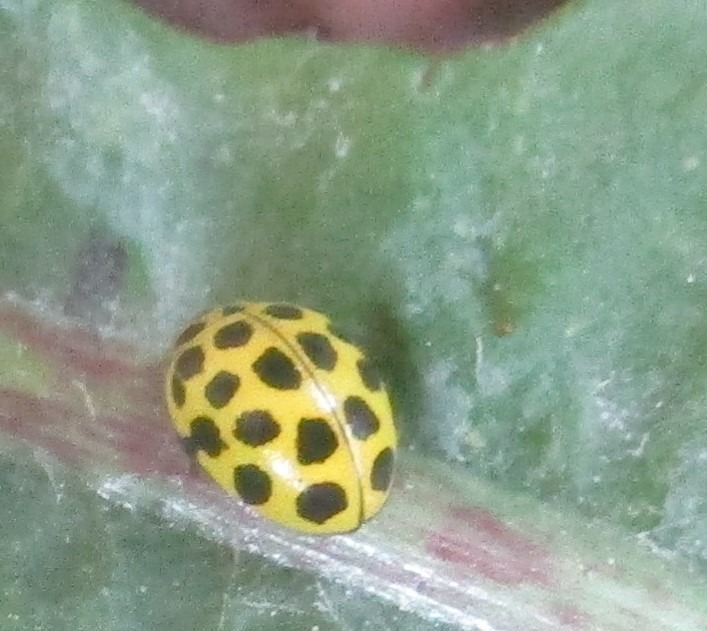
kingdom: Animalia
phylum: Arthropoda
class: Insecta
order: Coleoptera
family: Coccinellidae
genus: Psyllobora
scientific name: Psyllobora vigintiduopunctata
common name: Toogtyveplettet mariehøne
